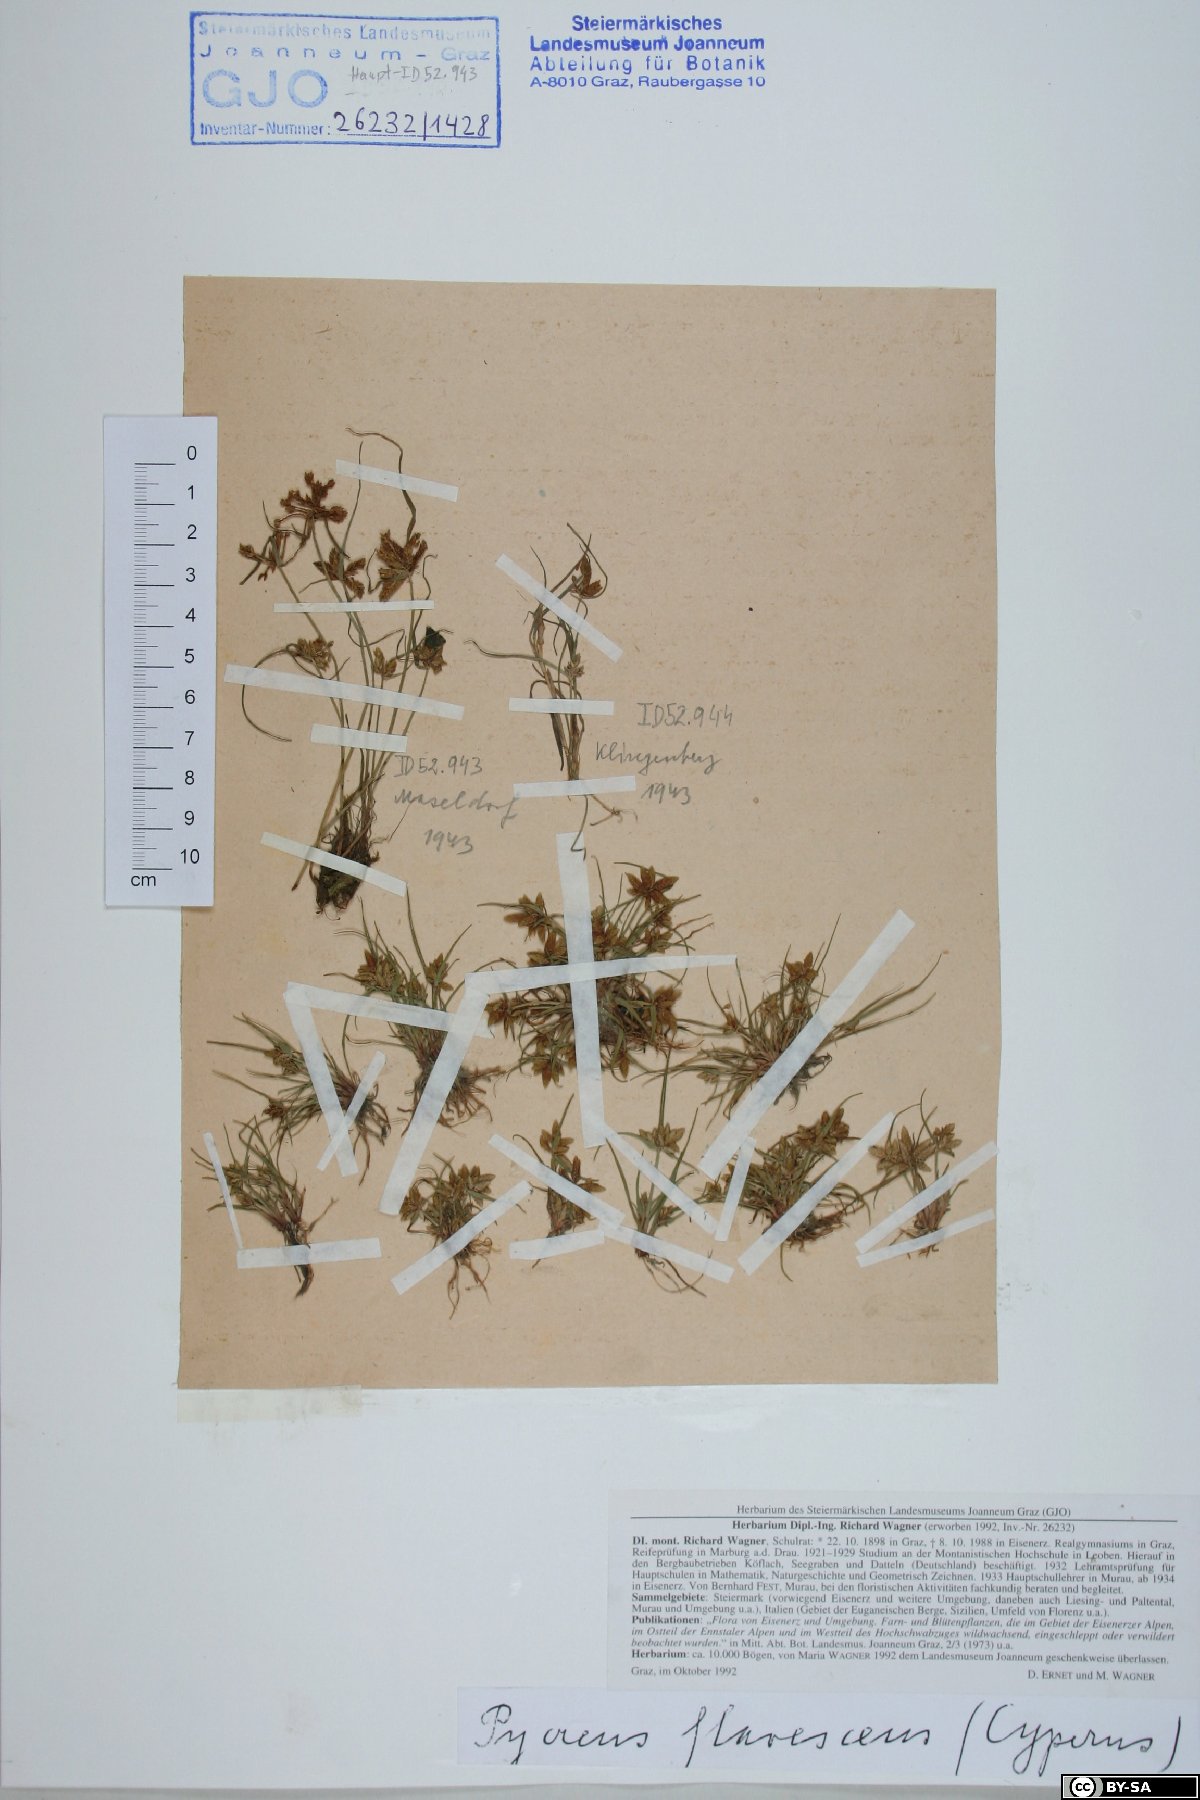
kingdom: Plantae
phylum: Tracheophyta
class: Liliopsida
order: Poales
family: Cyperaceae
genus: Cyperus
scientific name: Cyperus flavescens
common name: Yellow galingale
